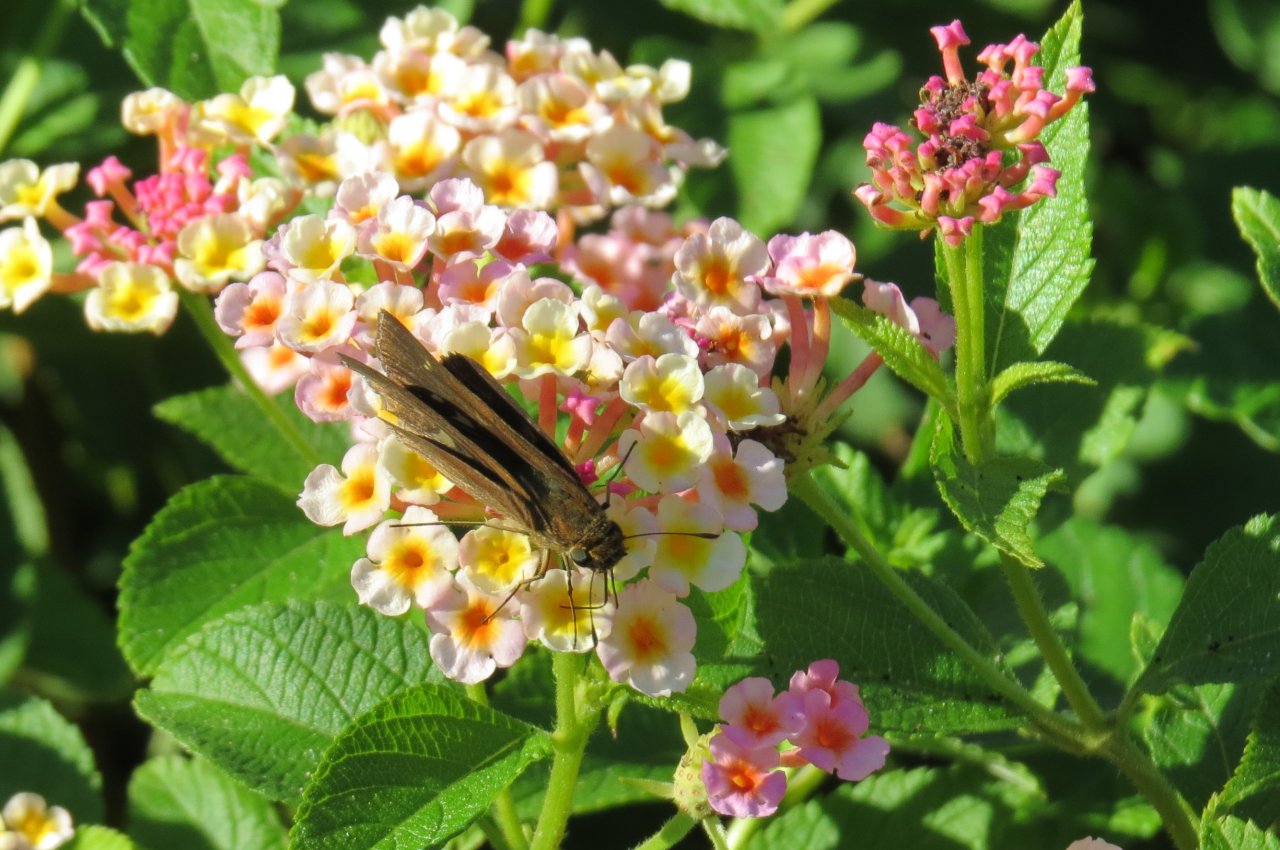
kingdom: Animalia
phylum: Arthropoda
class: Insecta
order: Lepidoptera
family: Hesperiidae
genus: Panoquina
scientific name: Panoquina ocola
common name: Ocola Skipper
